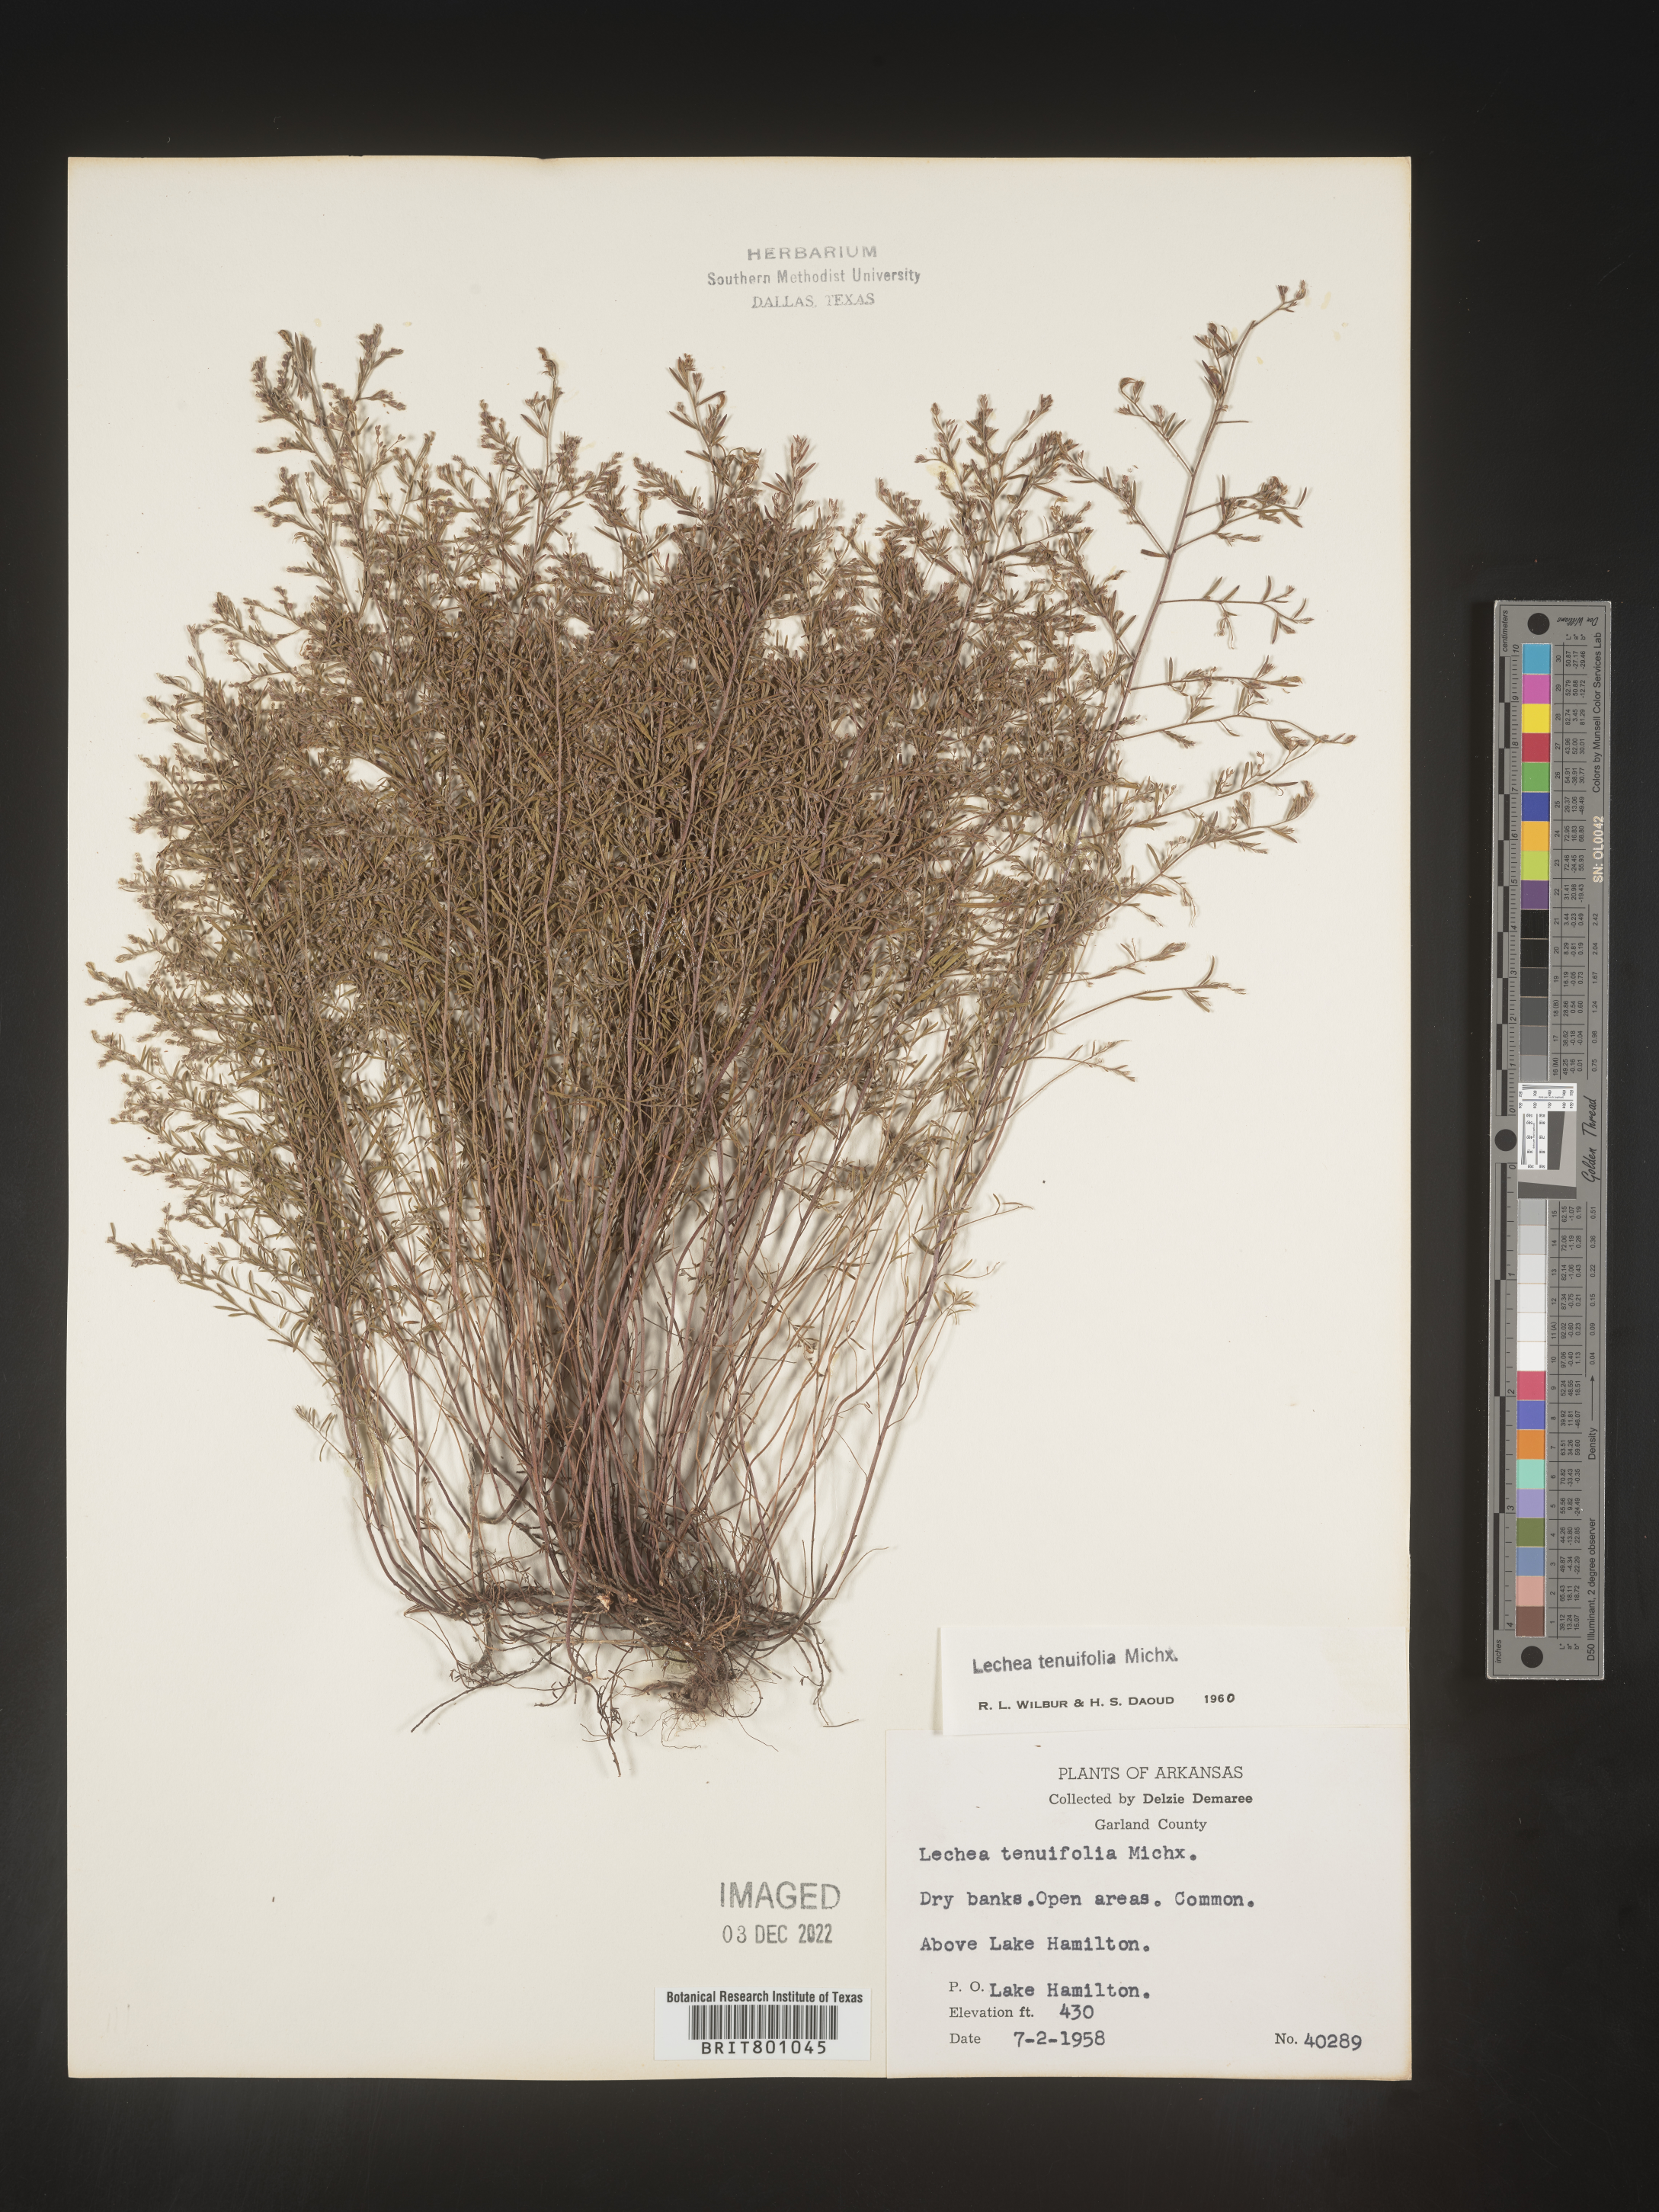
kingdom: Plantae
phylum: Tracheophyta
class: Magnoliopsida
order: Malvales
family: Cistaceae
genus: Lechea
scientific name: Lechea tenuifolia
